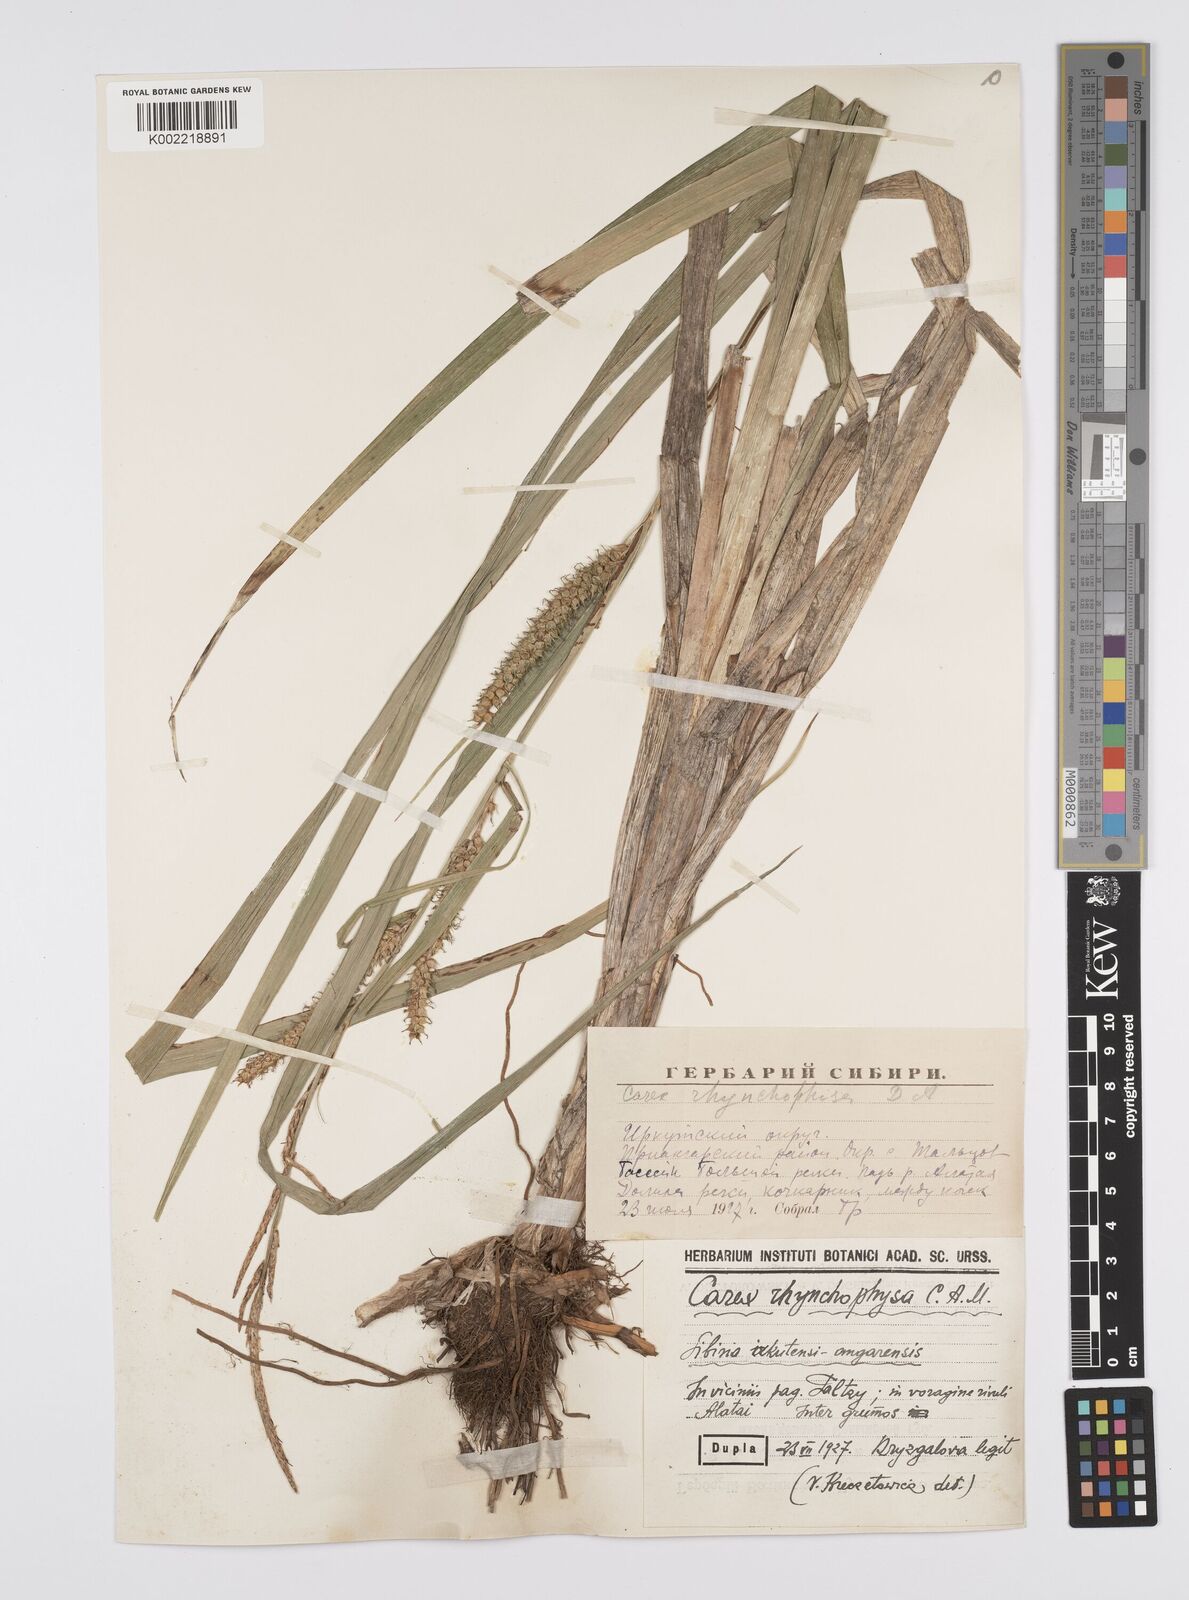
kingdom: Plantae
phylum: Tracheophyta
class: Liliopsida
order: Poales
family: Cyperaceae
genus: Carex
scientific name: Carex utriculata
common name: Beaked sedge
